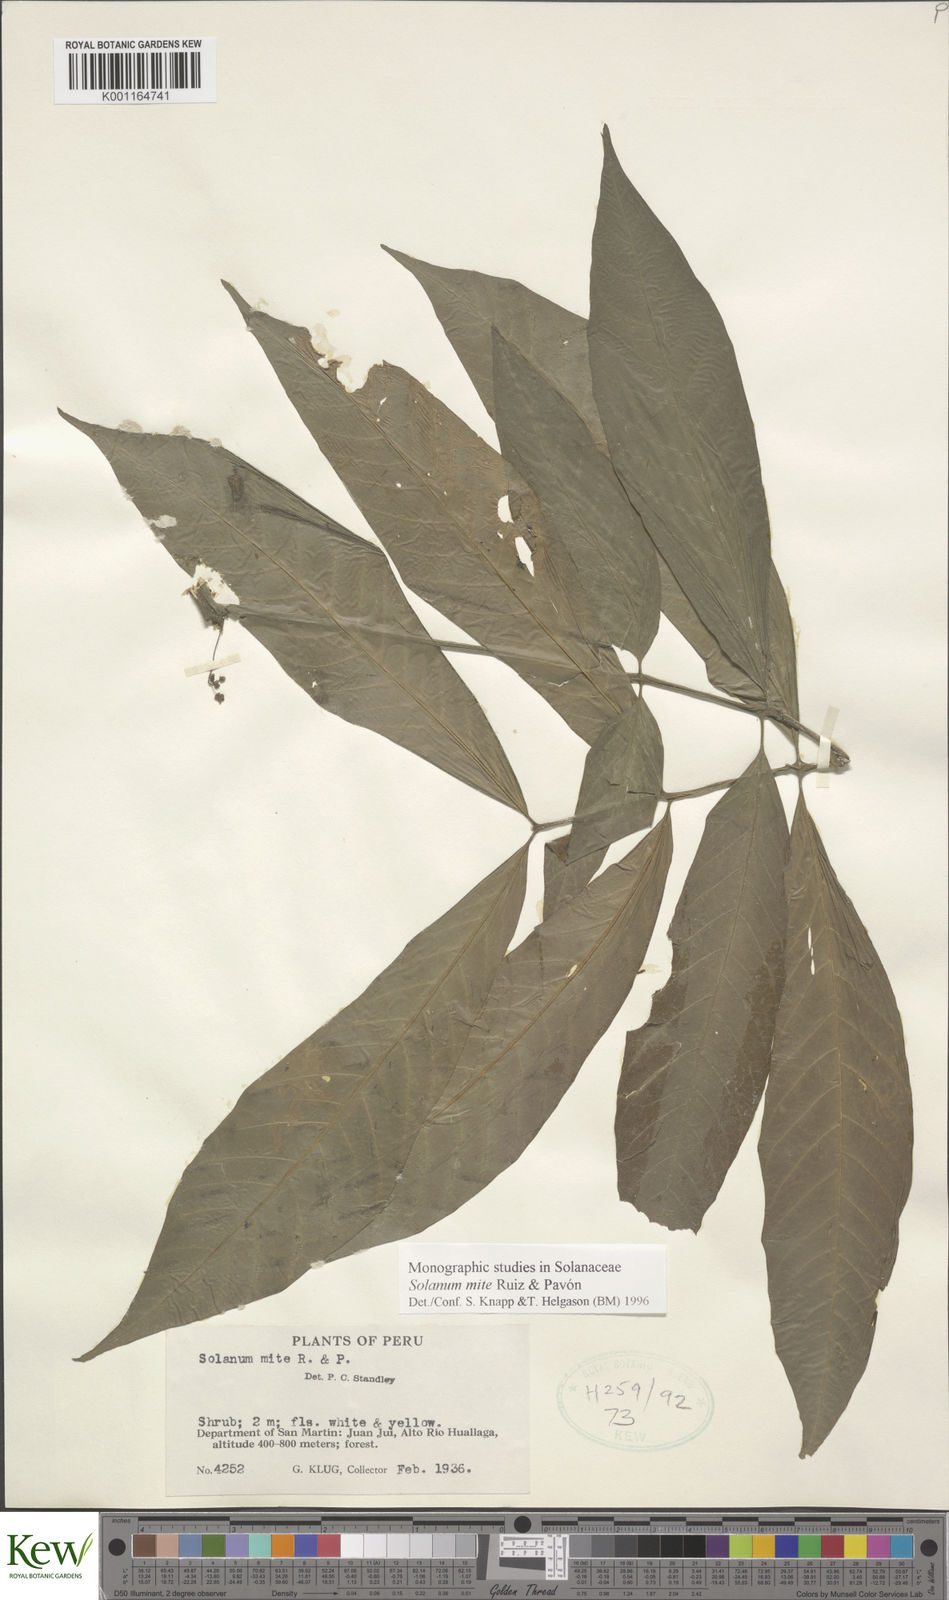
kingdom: Plantae
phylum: Tracheophyta
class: Magnoliopsida
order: Solanales
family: Solanaceae
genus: Solanum
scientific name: Solanum mite
